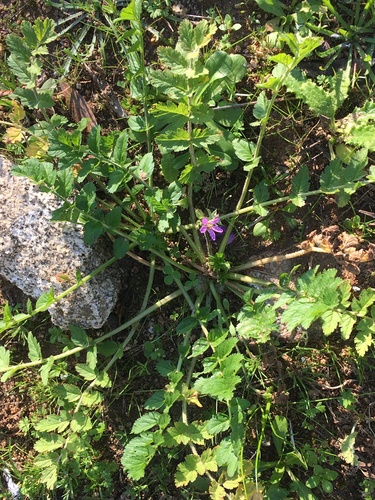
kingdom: Plantae
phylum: Tracheophyta
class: Magnoliopsida
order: Geraniales
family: Geraniaceae
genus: Erodium
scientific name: Erodium moschatum
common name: Musk stork's-bill
